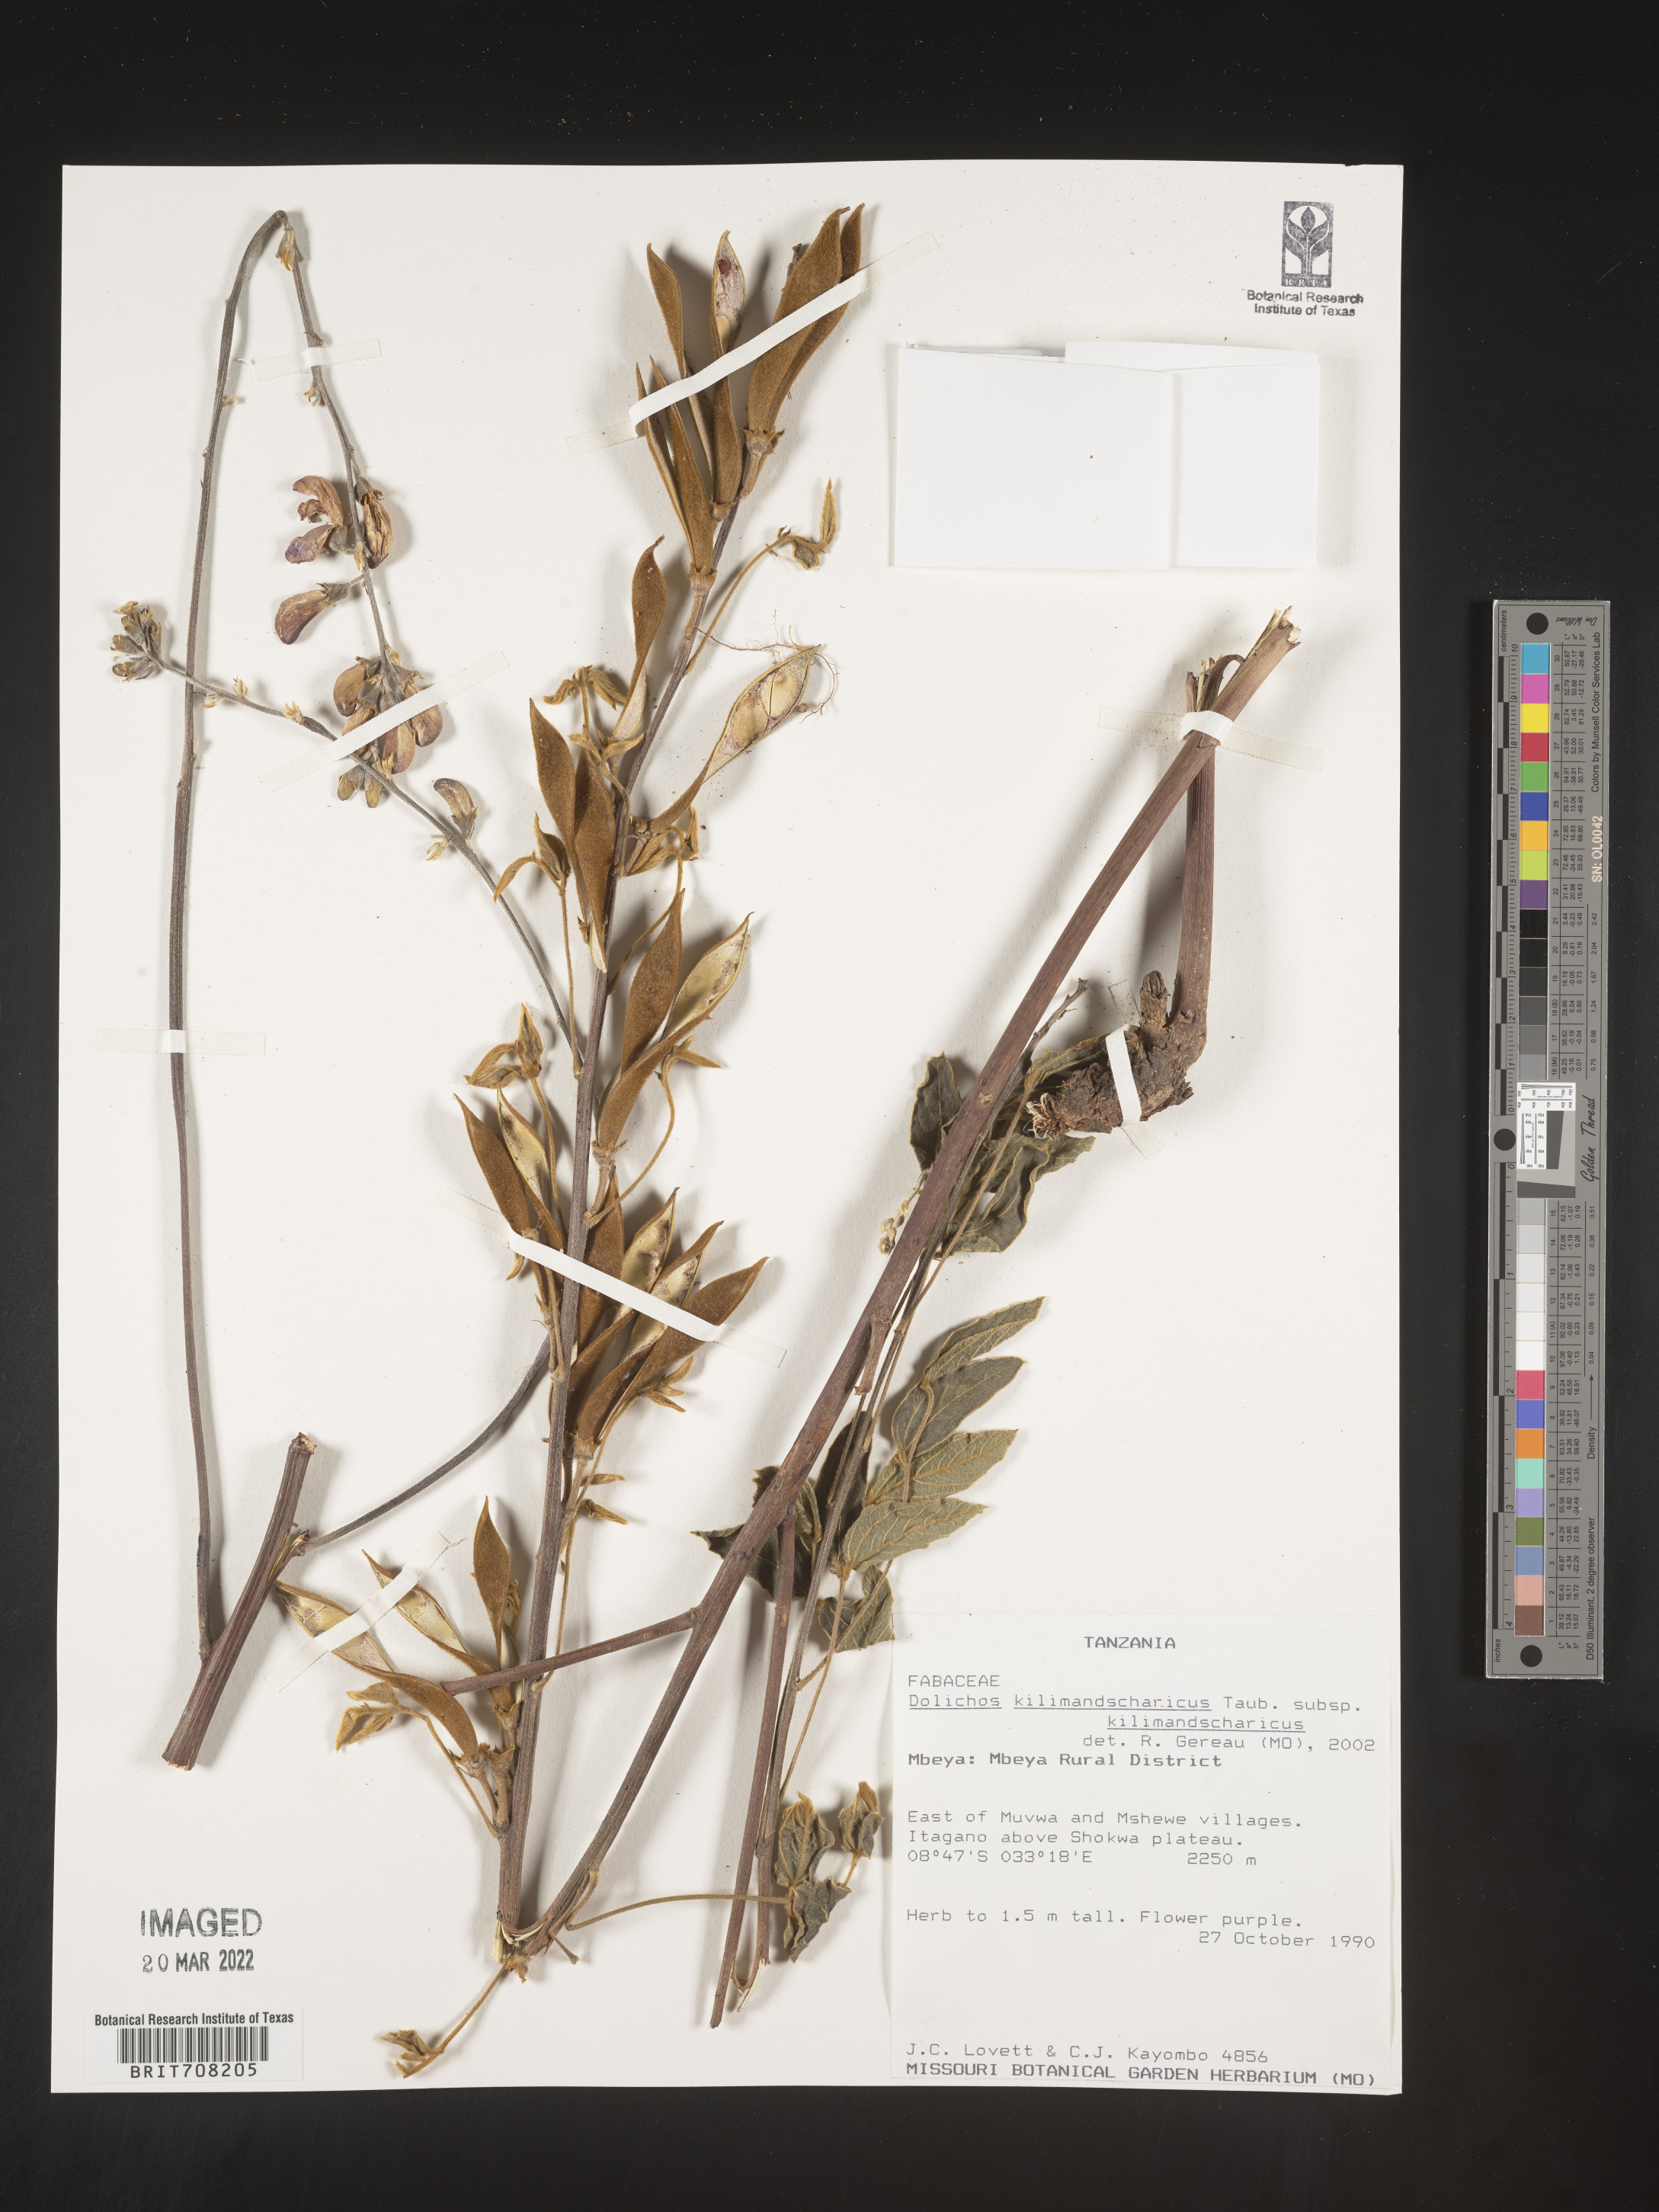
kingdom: Plantae
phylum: Tracheophyta
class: Magnoliopsida
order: Fabales
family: Fabaceae
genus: Dolichos
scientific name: Dolichos
